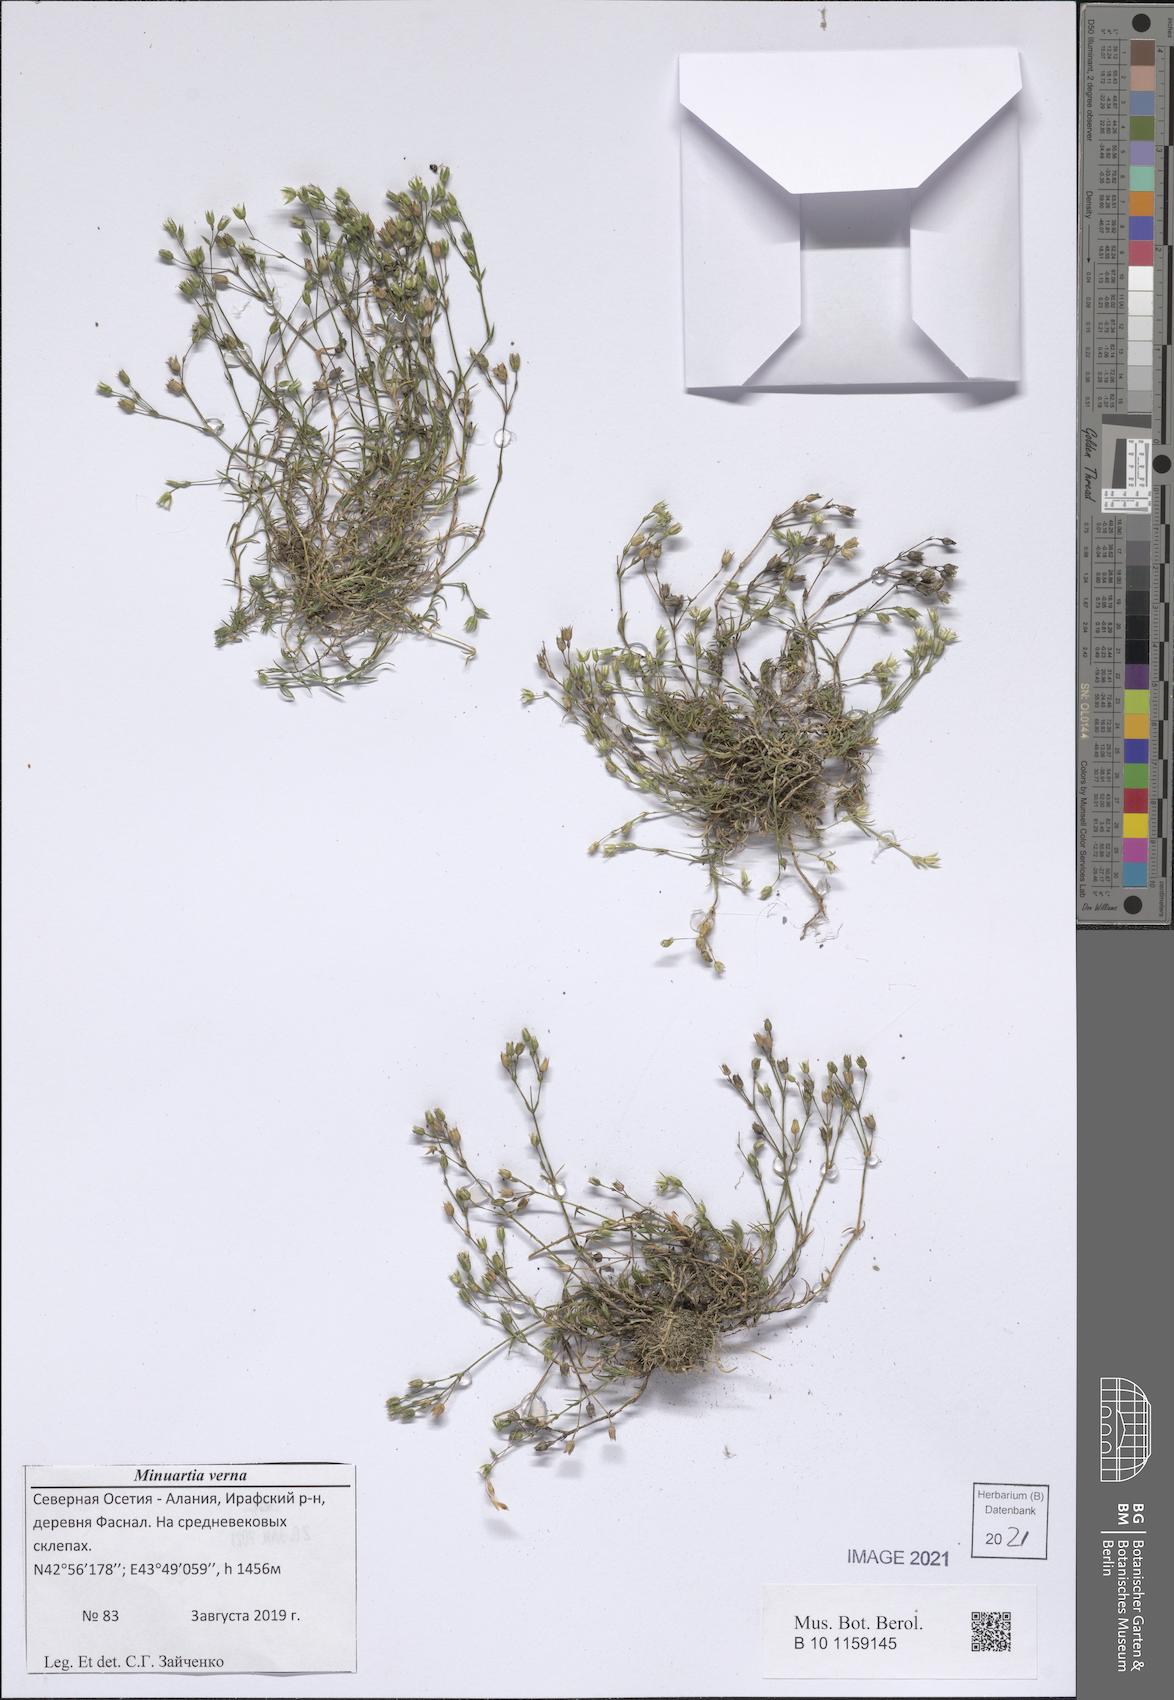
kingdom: Plantae
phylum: Tracheophyta
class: Magnoliopsida
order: Caryophyllales
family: Caryophyllaceae
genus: Sabulina
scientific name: Sabulina verna
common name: Spring sandwort
